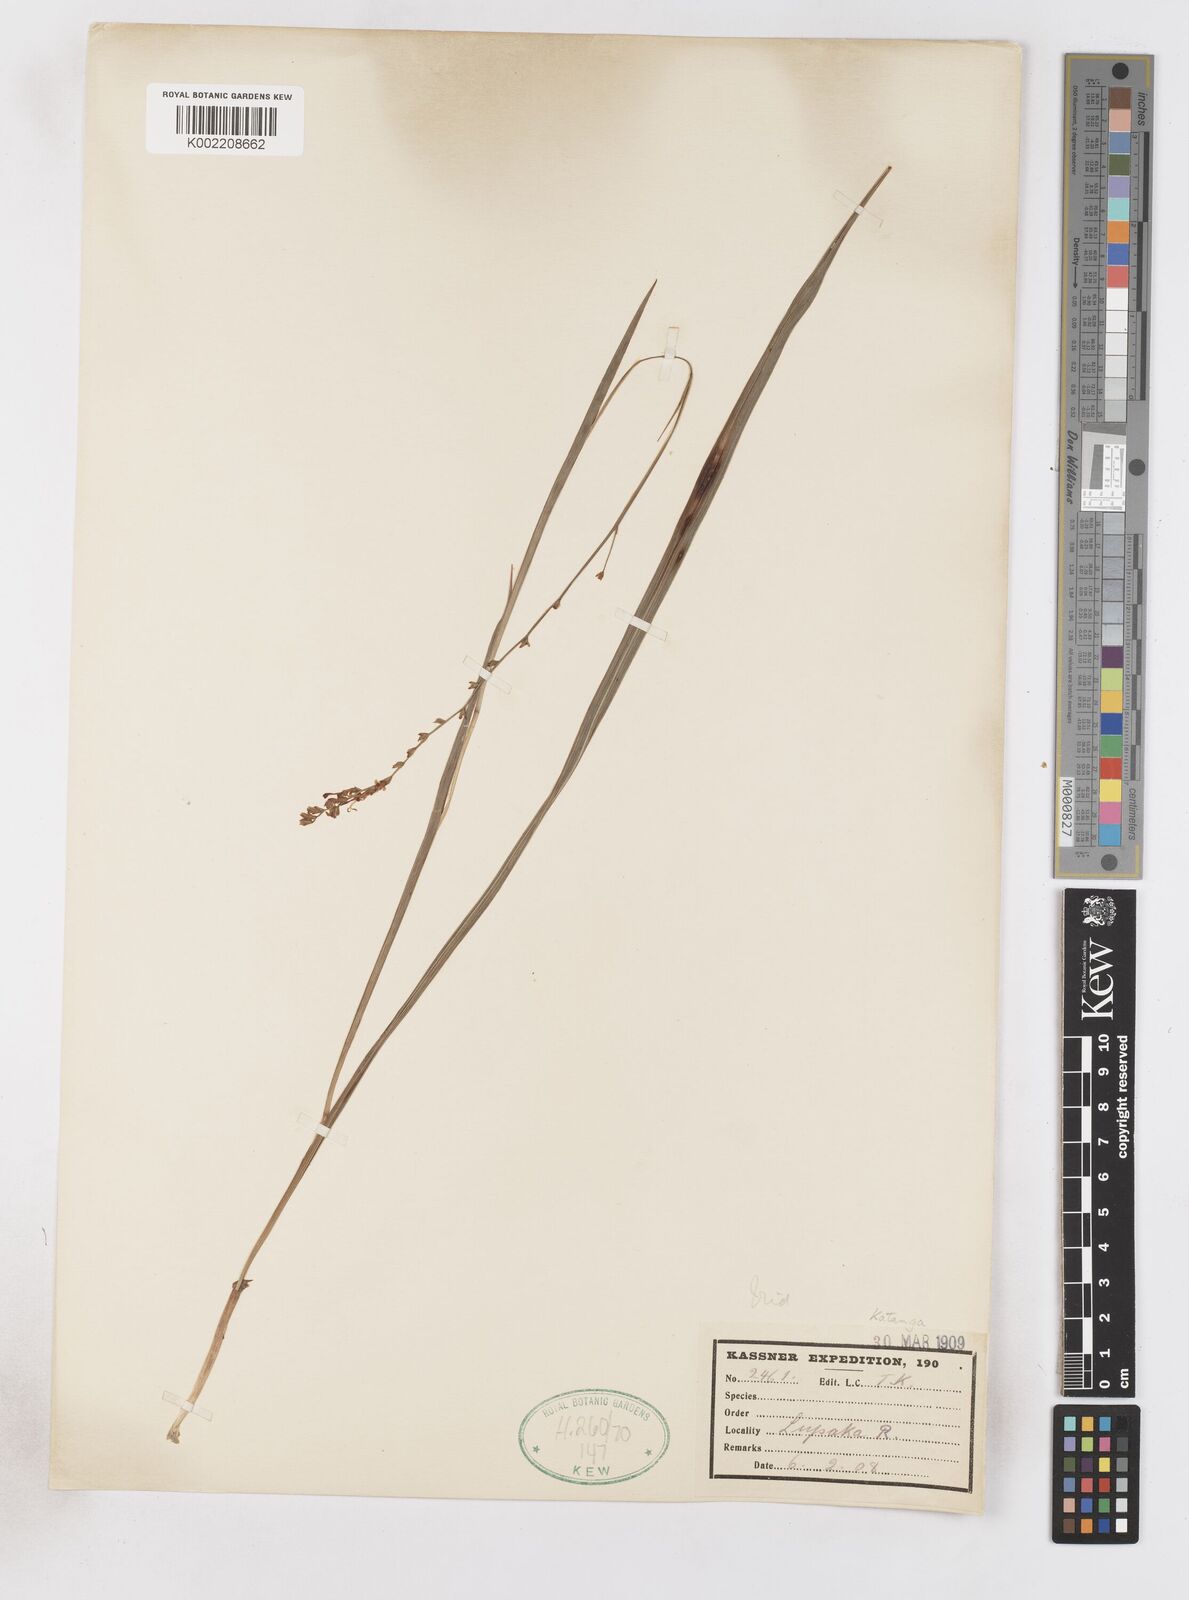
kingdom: Plantae
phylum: Tracheophyta
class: Liliopsida
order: Asparagales
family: Iridaceae
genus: Zygotritonia
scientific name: Zygotritonia nyassana
